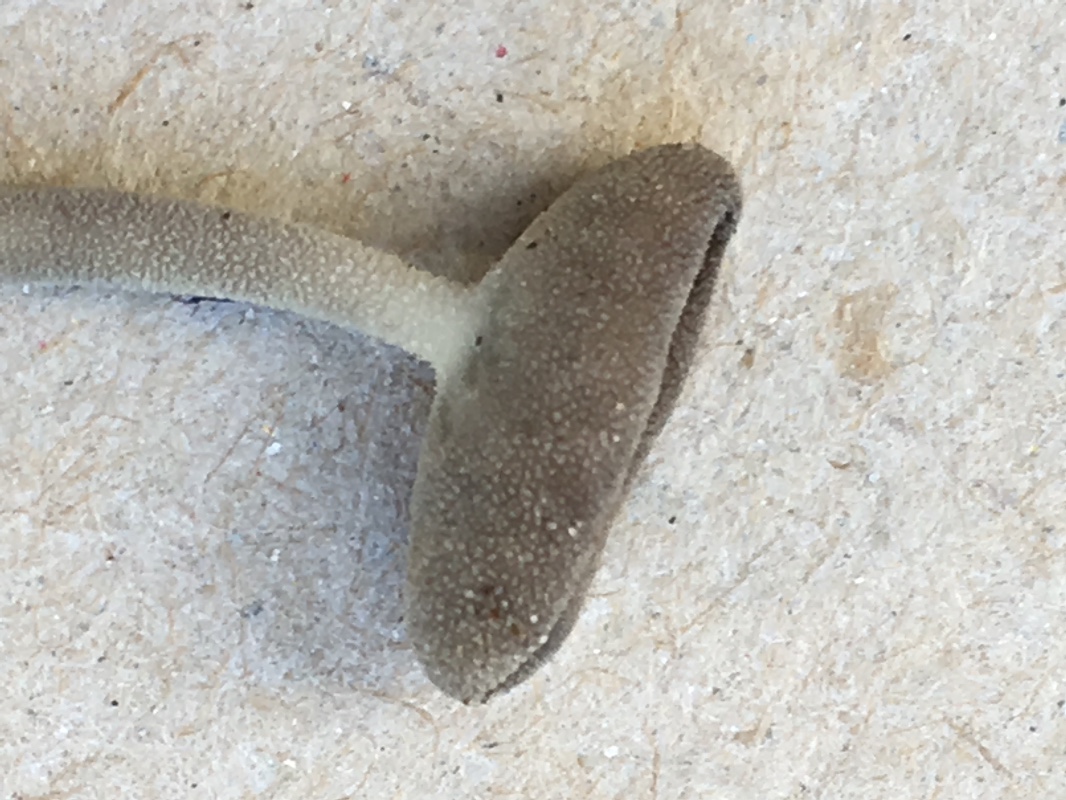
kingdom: Fungi
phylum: Ascomycota
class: Pezizomycetes
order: Pezizales
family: Helvellaceae
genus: Helvella
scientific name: Helvella
